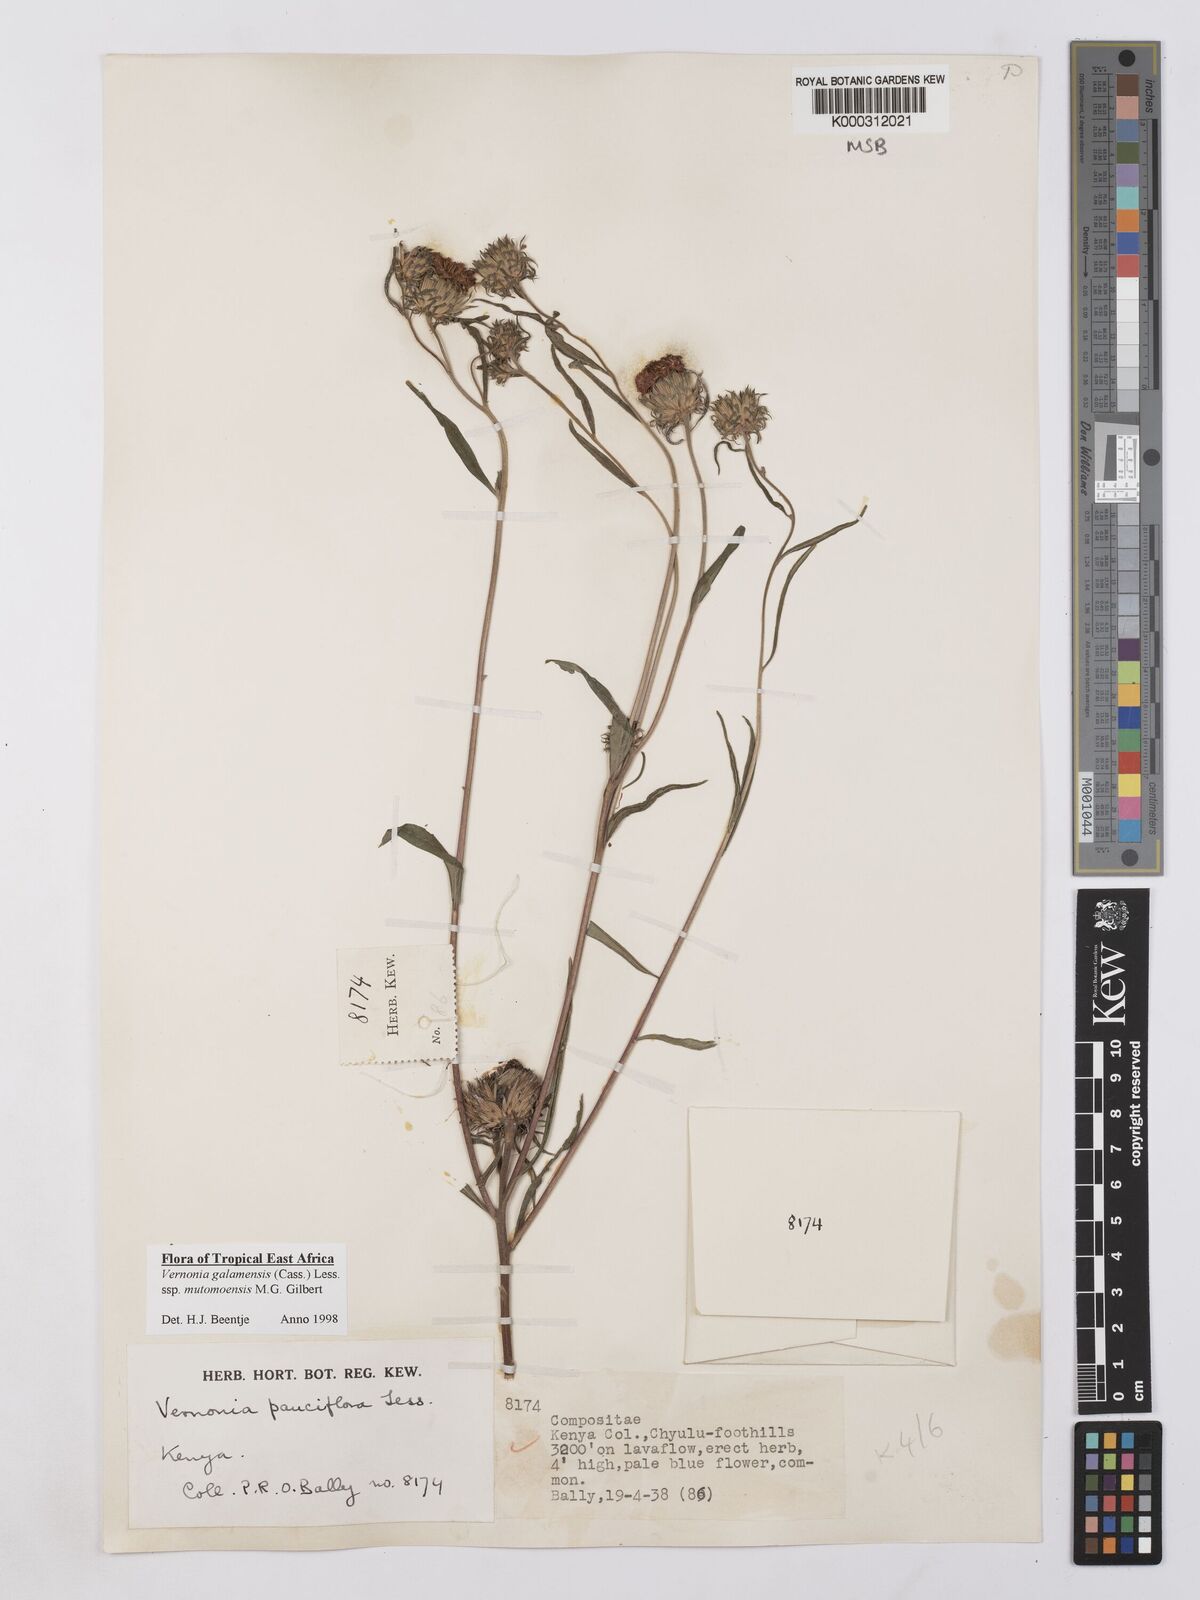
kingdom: Plantae
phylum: Tracheophyta
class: Magnoliopsida
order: Asterales
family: Asteraceae
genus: Vernonia
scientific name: Vernonia galamensis
